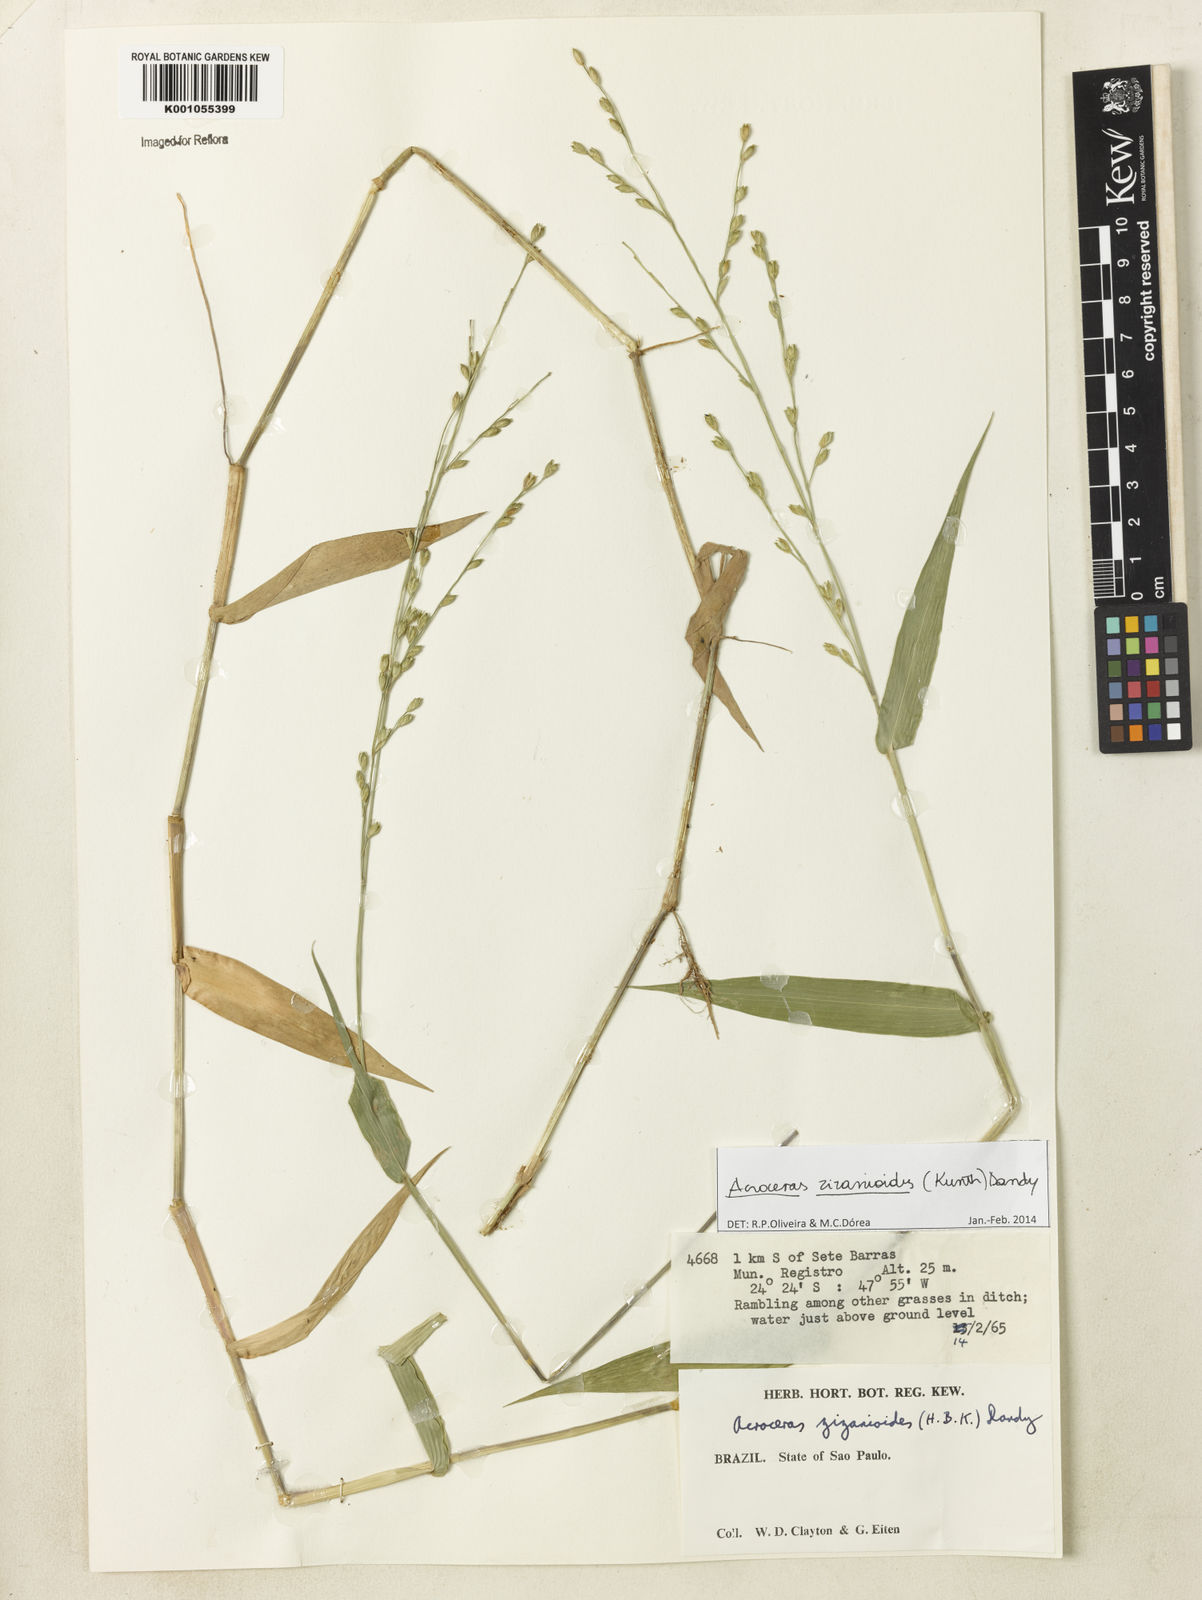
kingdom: Plantae
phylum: Tracheophyta
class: Liliopsida
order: Poales
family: Poaceae
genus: Acroceras
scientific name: Acroceras zizanioides
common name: Oat grass
